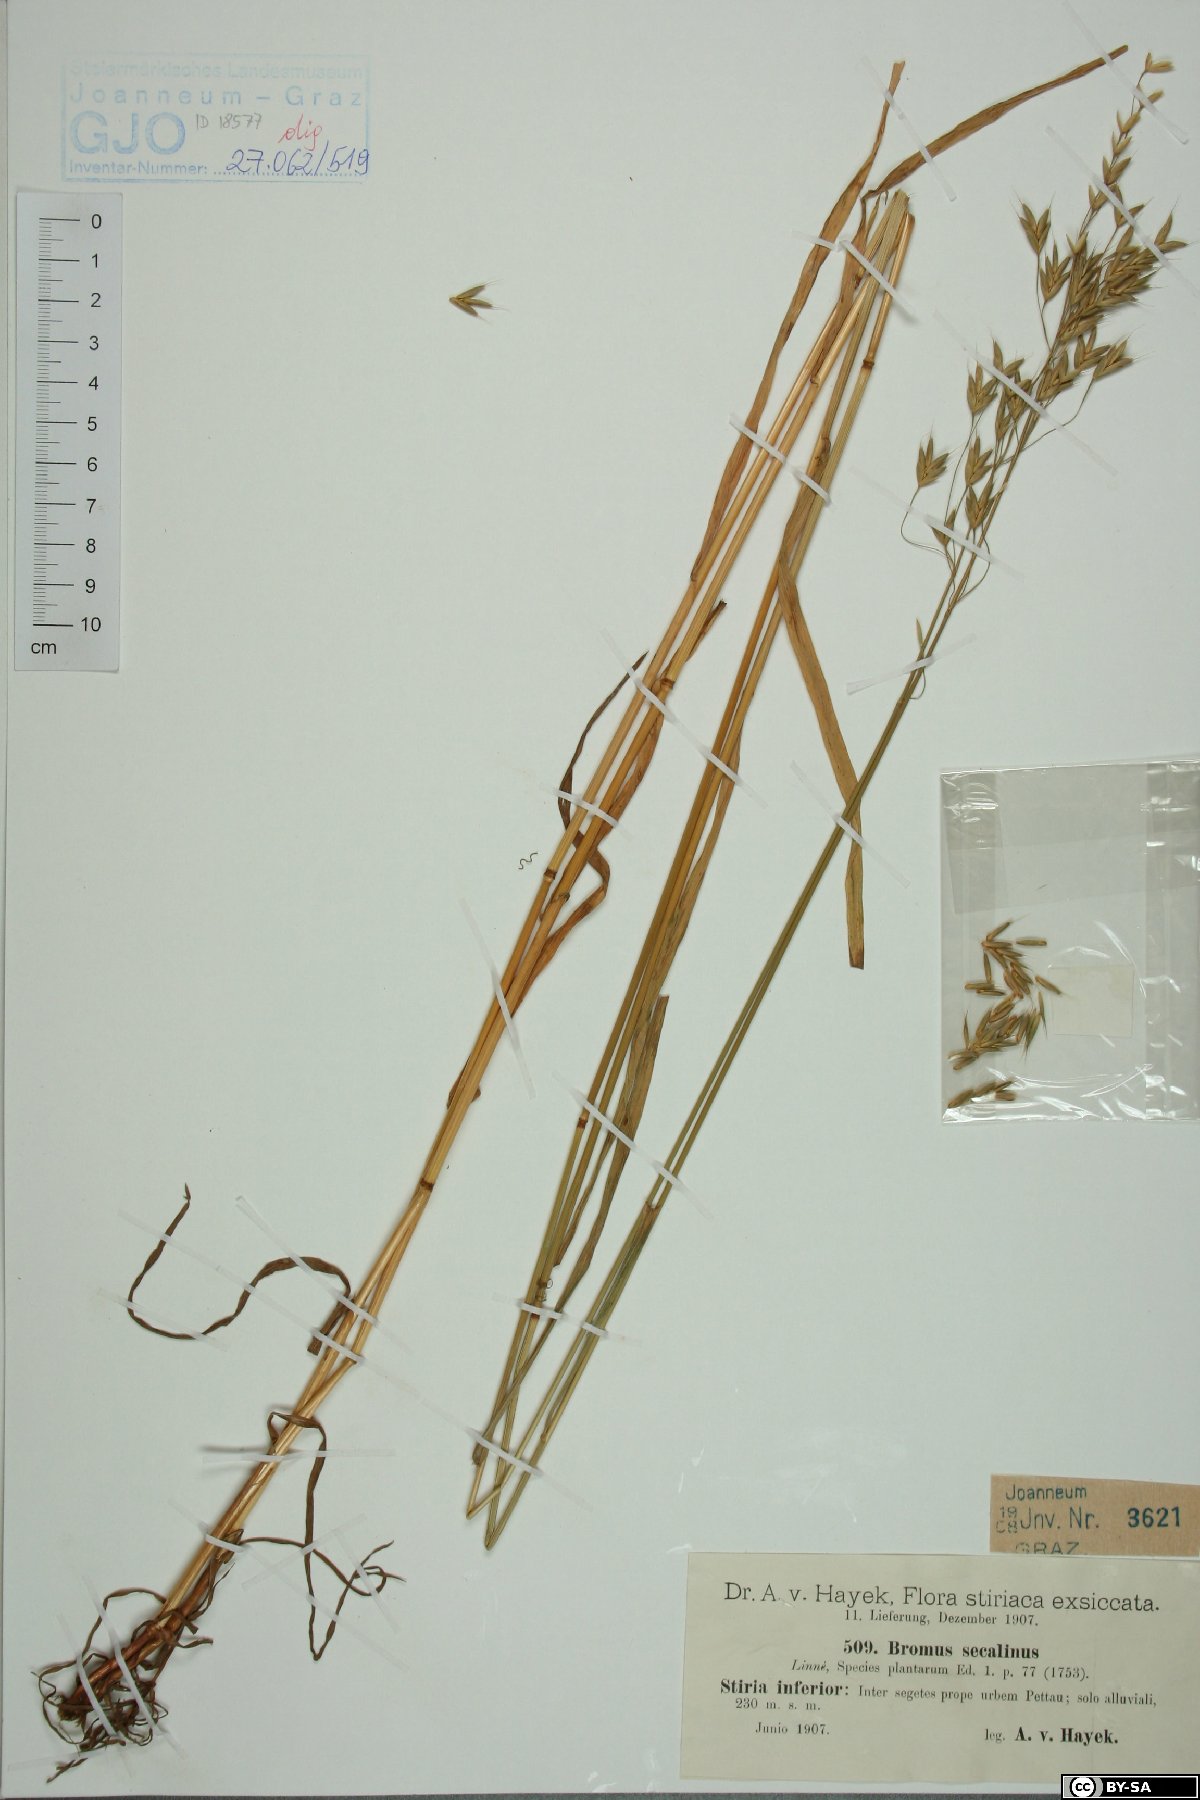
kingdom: Plantae
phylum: Tracheophyta
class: Liliopsida
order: Poales
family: Poaceae
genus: Bromus
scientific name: Bromus secalinus
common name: Rye brome
